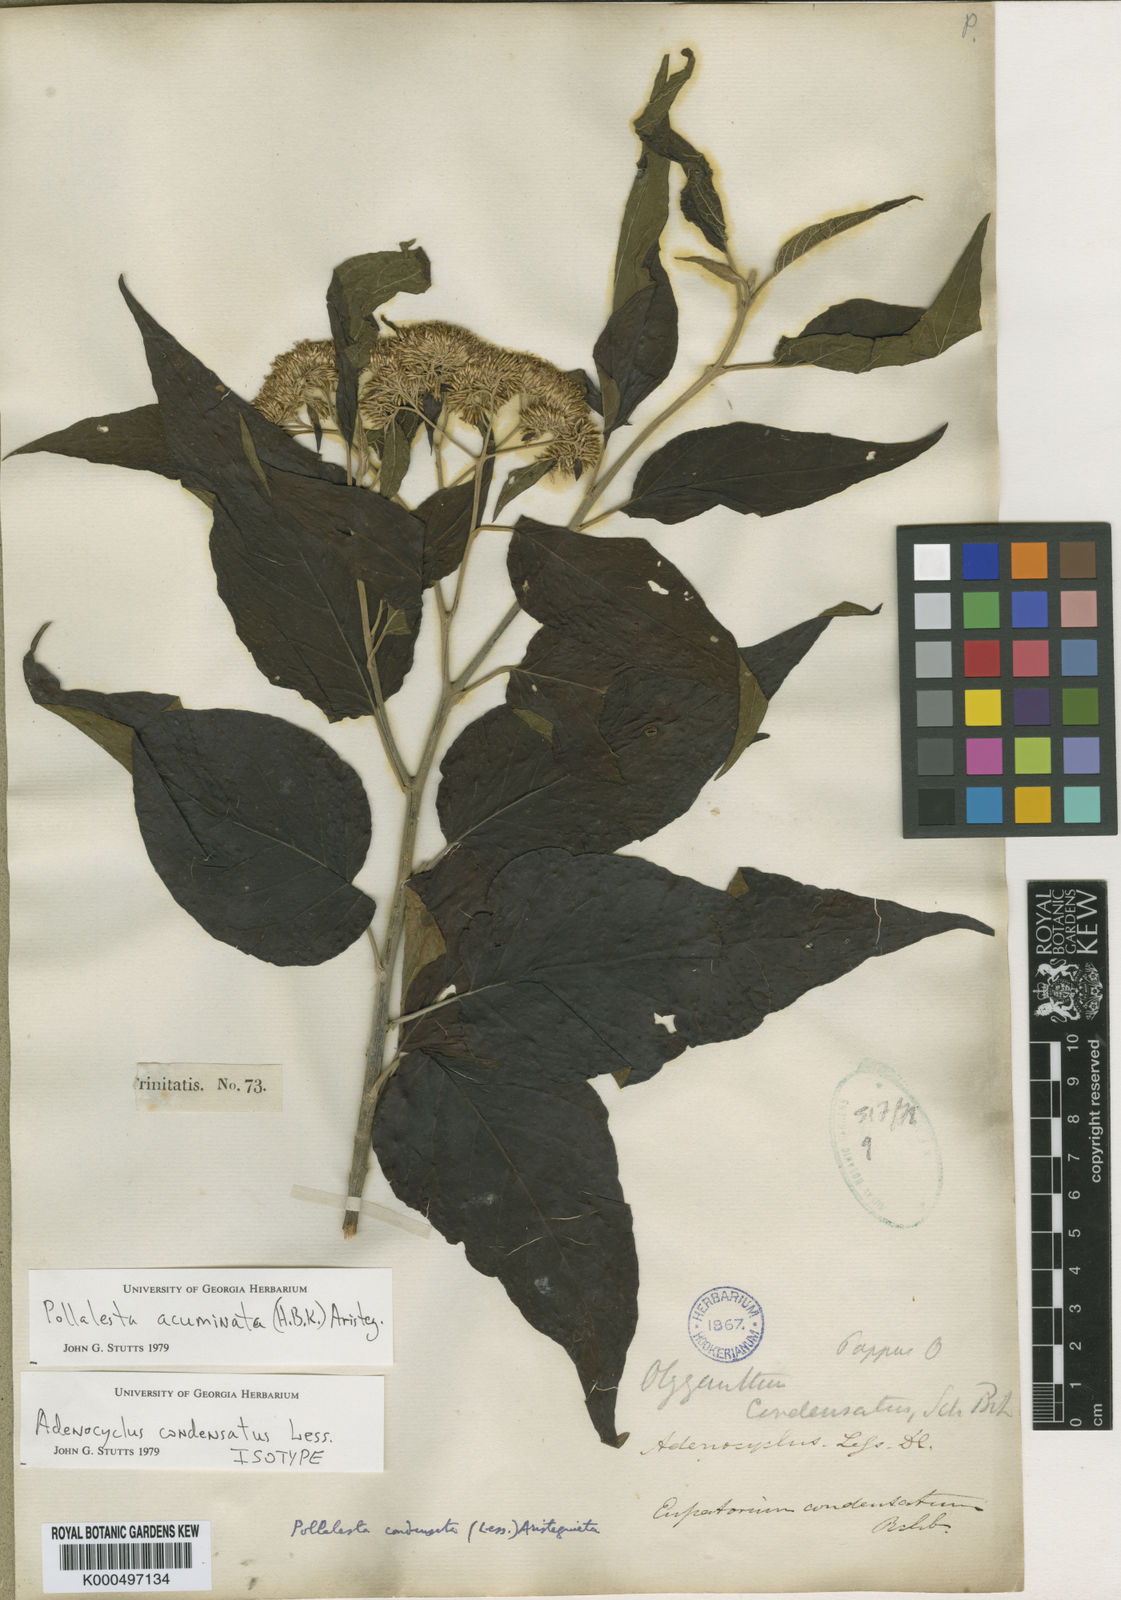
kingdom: Plantae
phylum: Tracheophyta
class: Magnoliopsida
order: Asterales
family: Asteraceae
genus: Piptocoma
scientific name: Piptocoma acuminata
